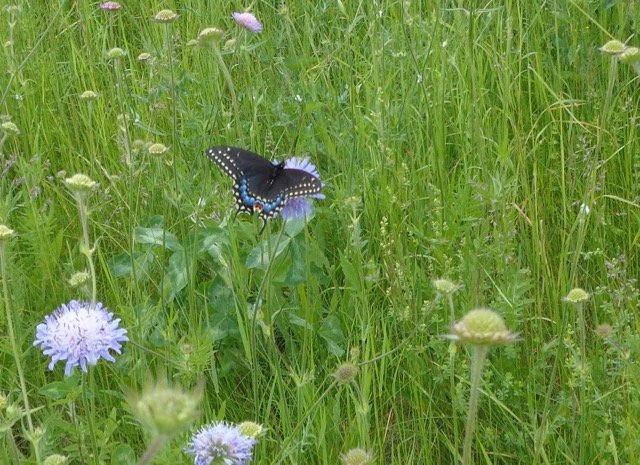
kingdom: Animalia
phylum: Arthropoda
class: Insecta
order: Lepidoptera
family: Papilionidae
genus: Papilio
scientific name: Papilio polyxenes
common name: Black Swallowtail
